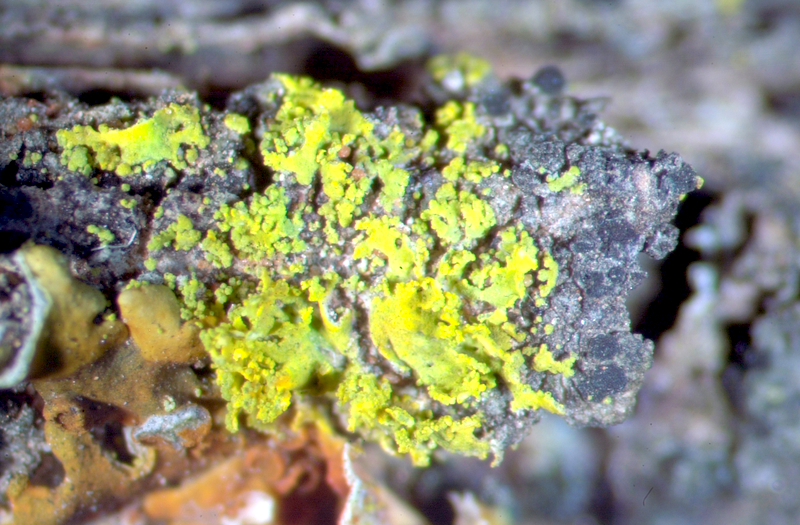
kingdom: Fungi
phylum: Ascomycota
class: Lecanoromycetes
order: Teloschistales
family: Teloschistaceae
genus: Xanthoria
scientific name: Xanthoria
